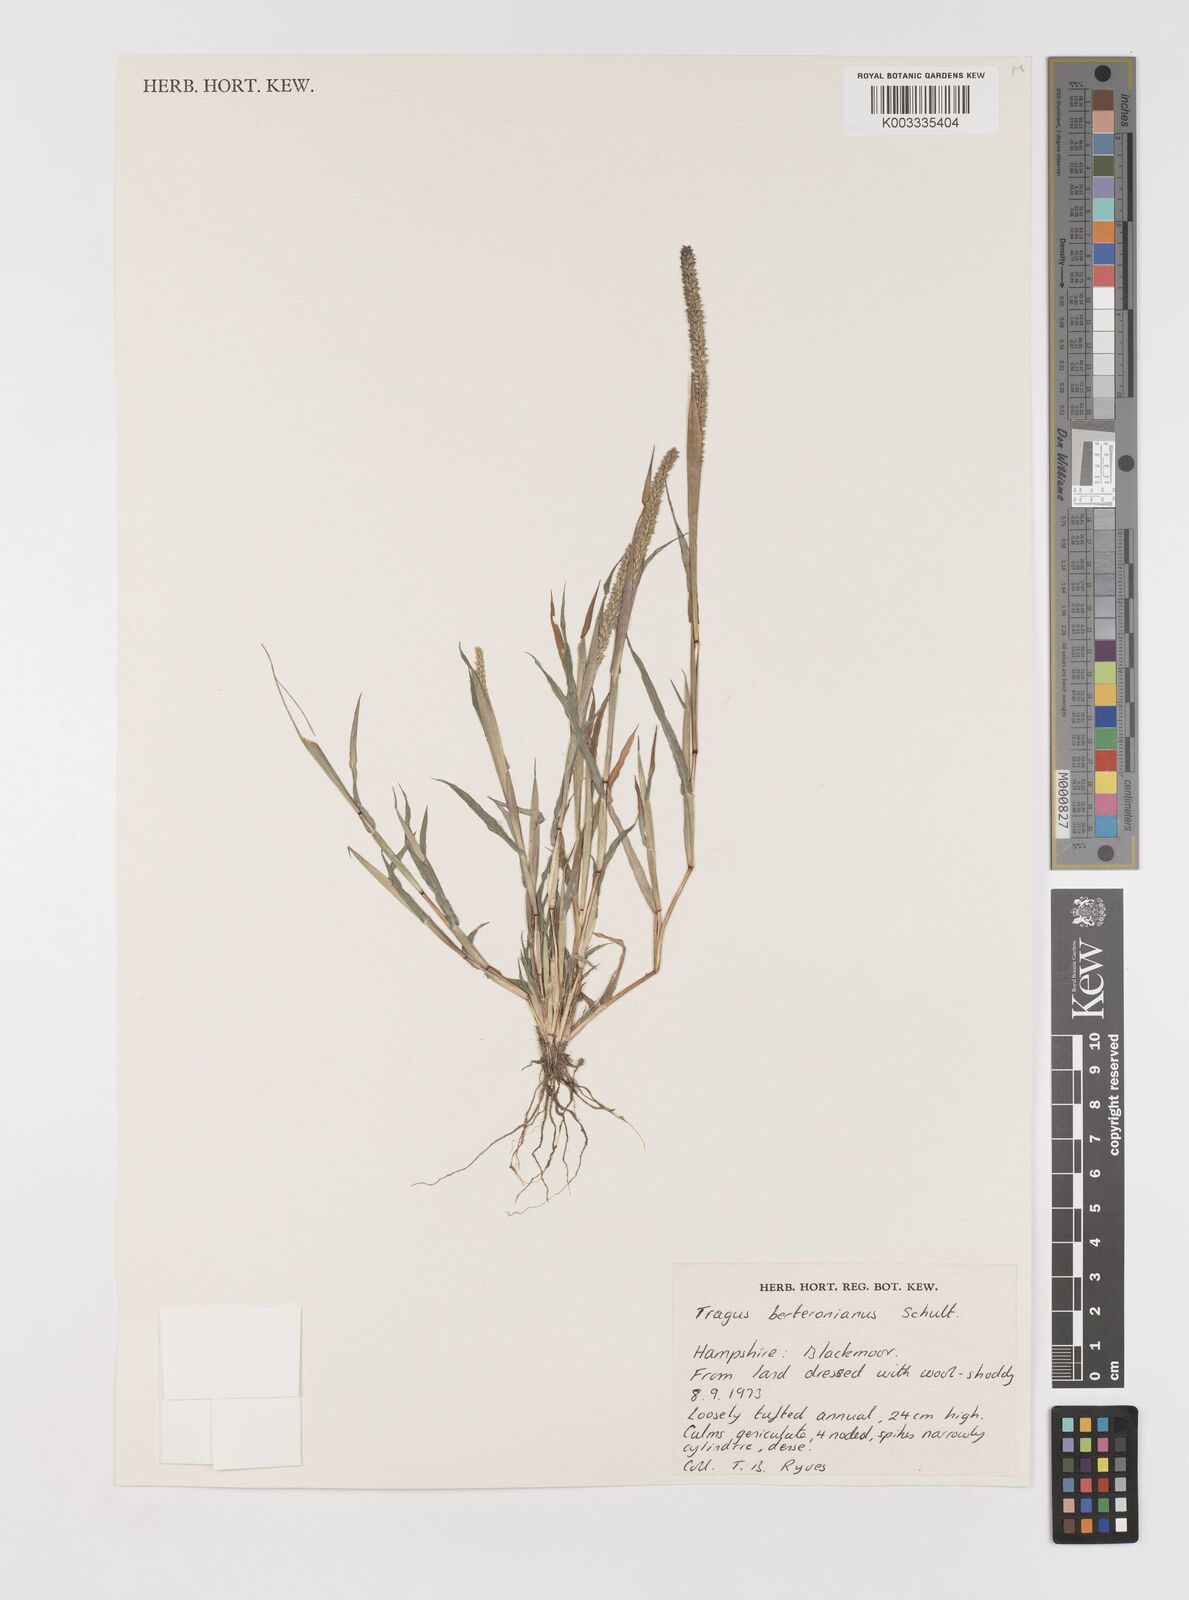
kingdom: Plantae
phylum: Tracheophyta
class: Liliopsida
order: Poales
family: Poaceae
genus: Tragus
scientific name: Tragus berteronianus
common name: African bur-grass
